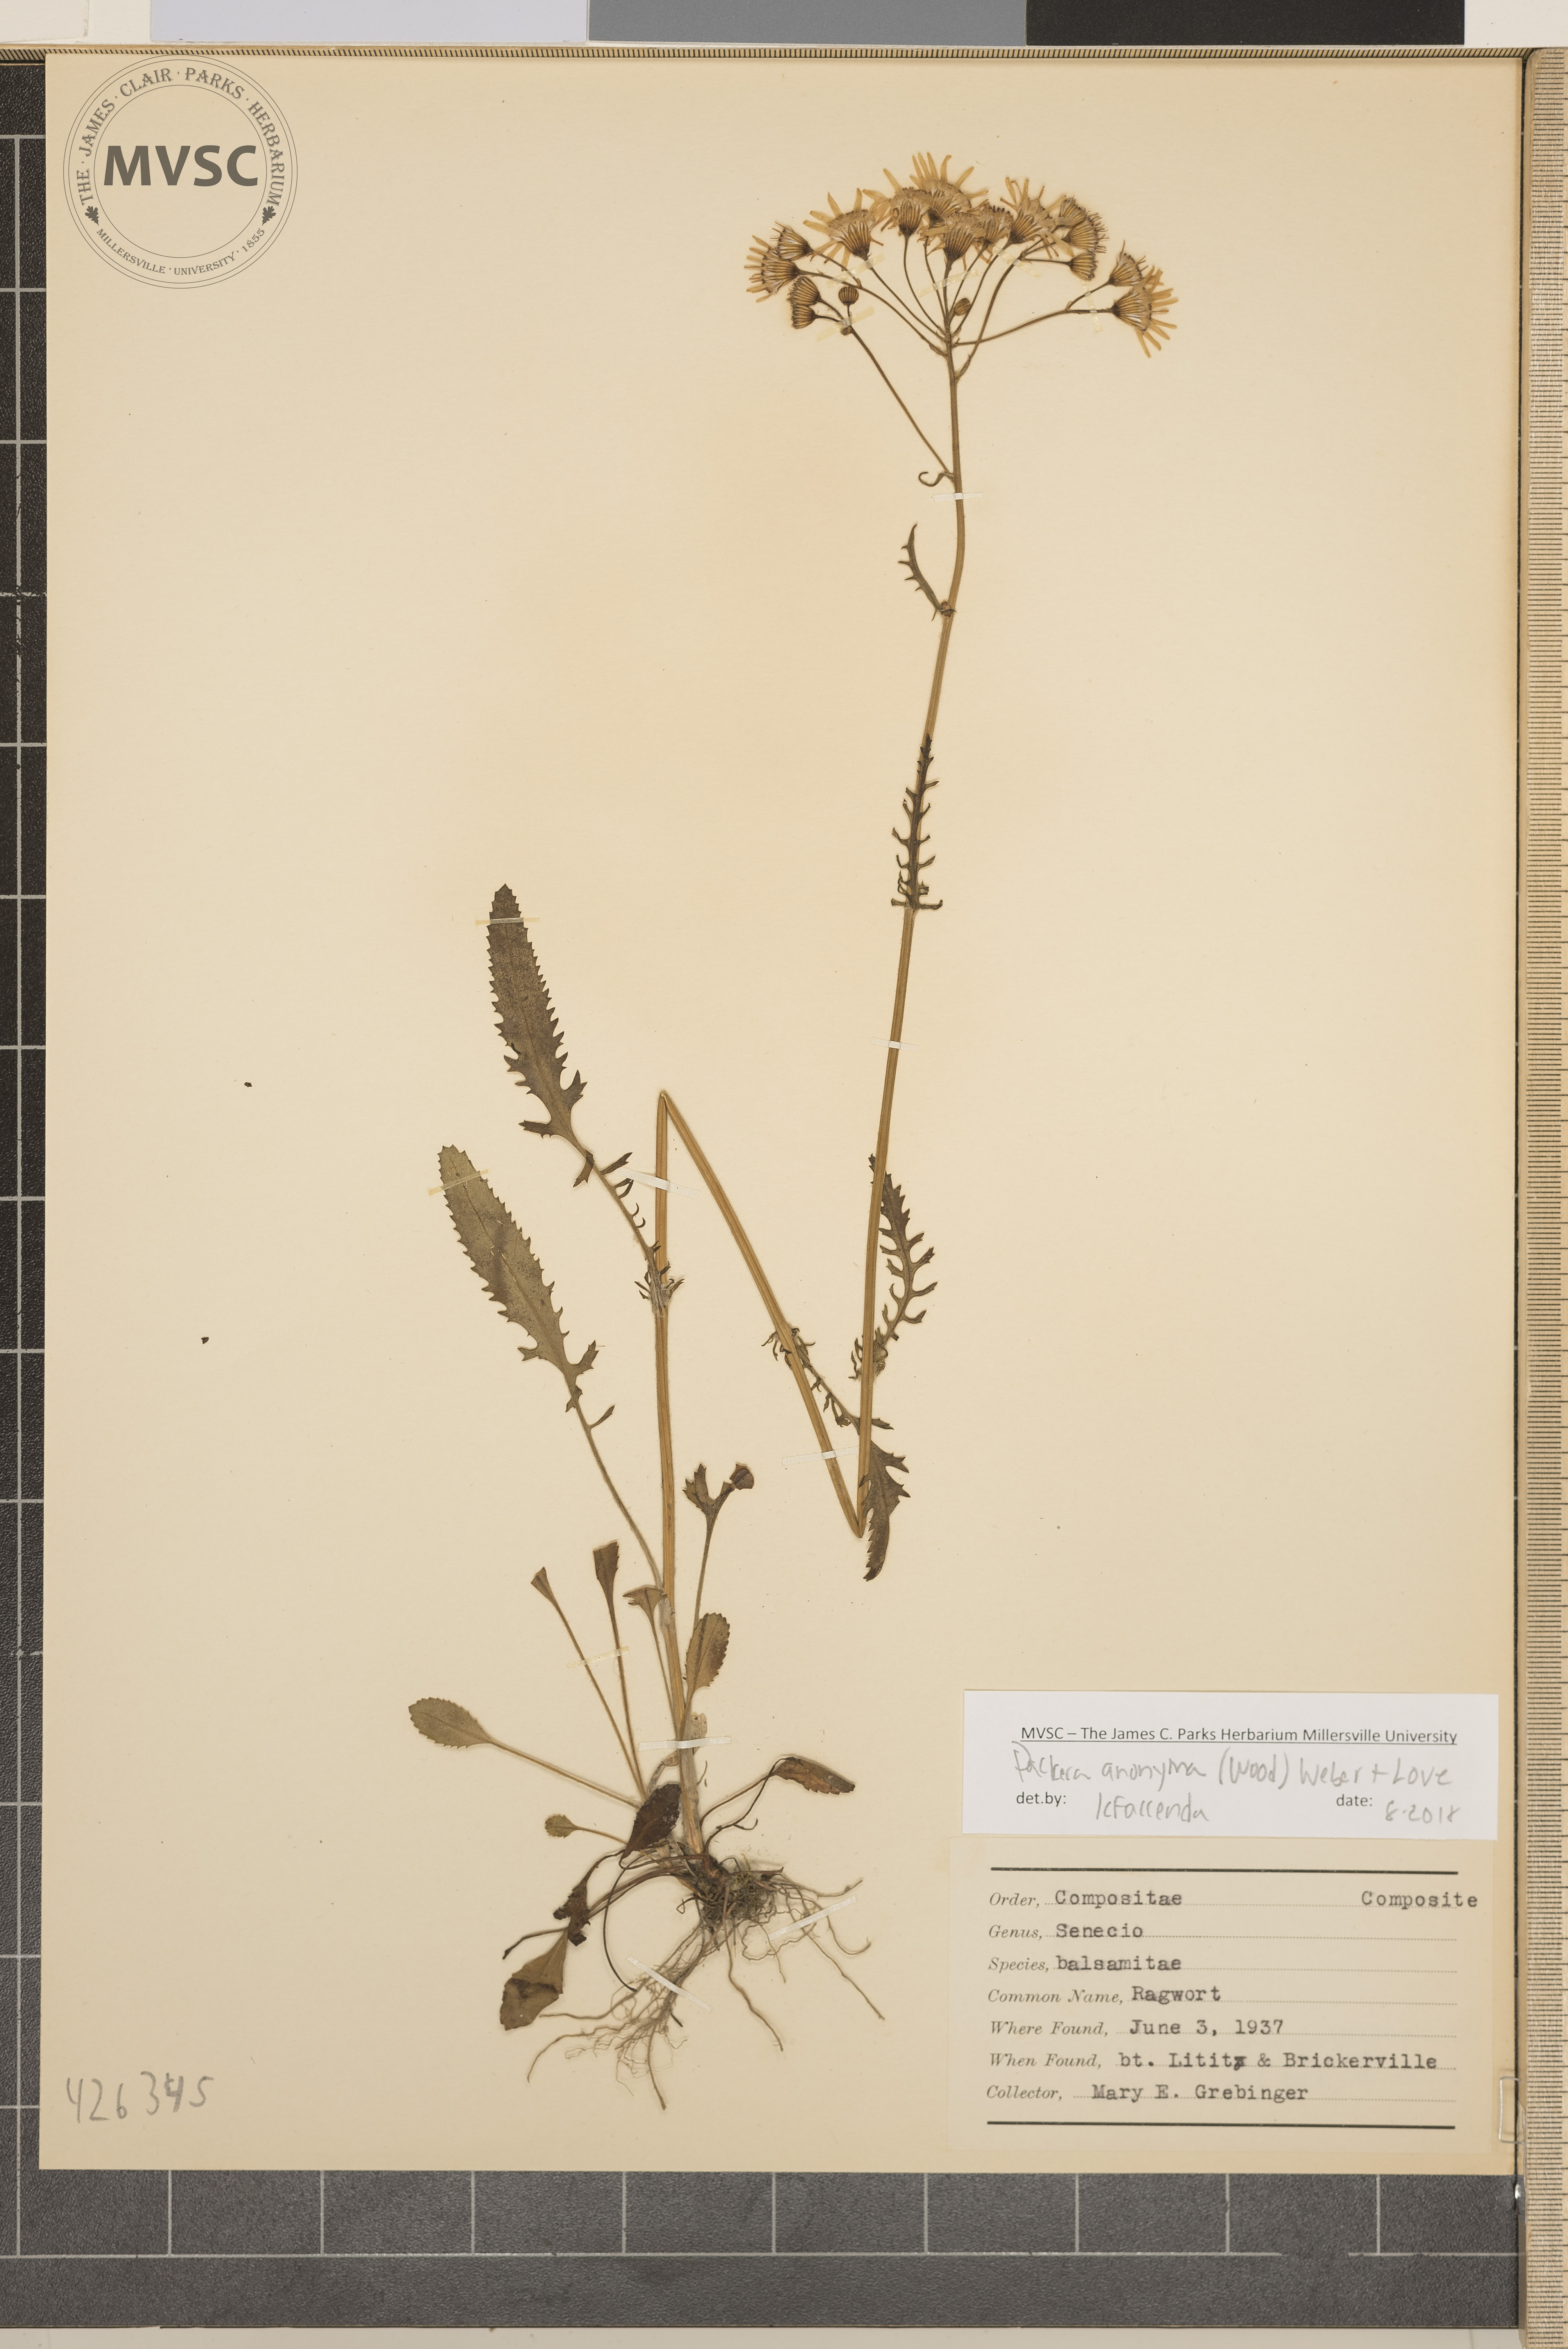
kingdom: Plantae
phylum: Tracheophyta
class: Magnoliopsida
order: Asterales
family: Asteraceae
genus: Packera
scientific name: Packera anonyma
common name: Ragwort
